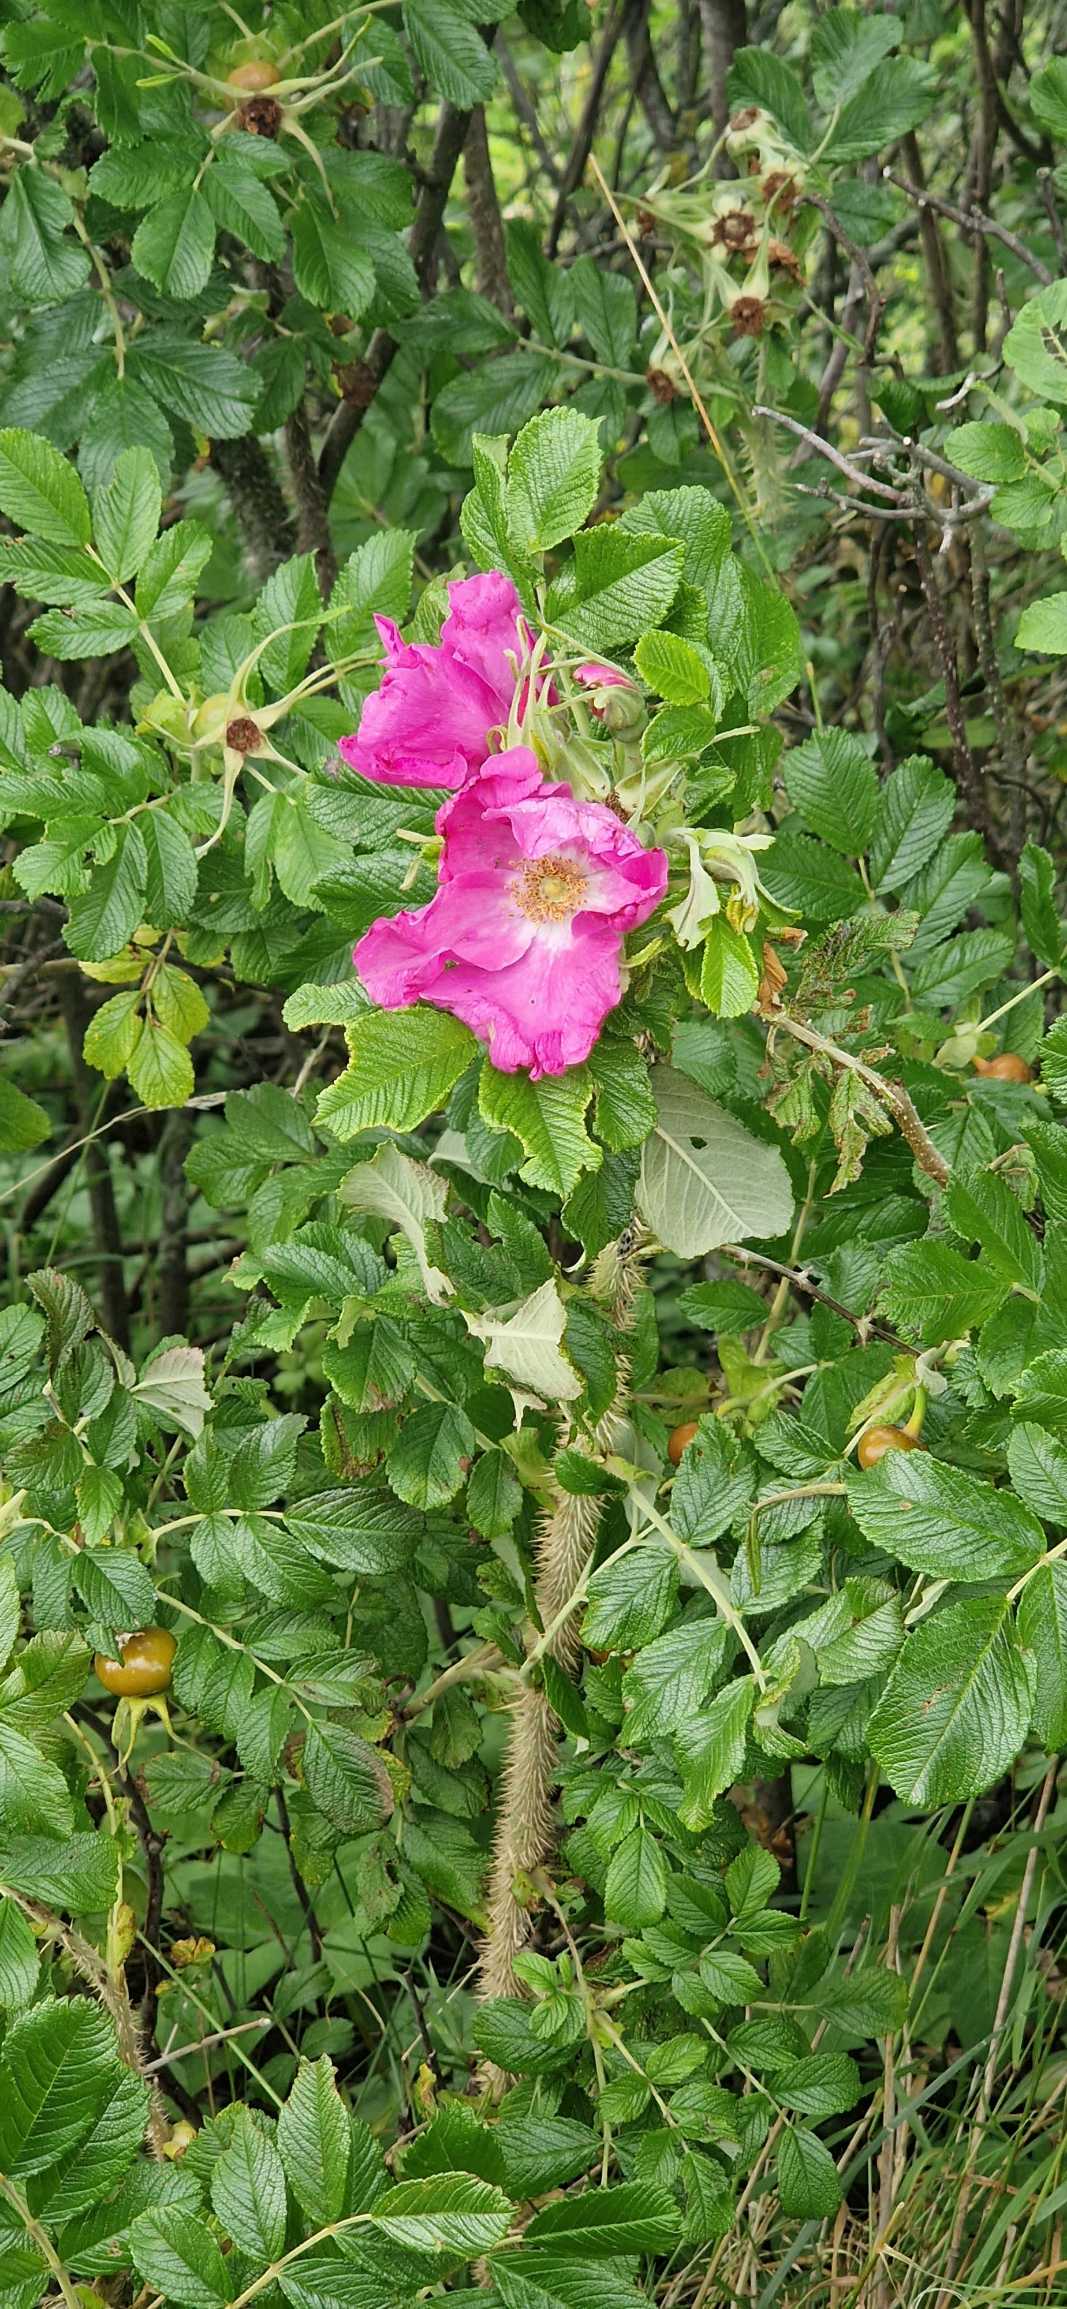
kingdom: Plantae
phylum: Tracheophyta
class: Magnoliopsida
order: Rosales
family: Rosaceae
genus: Rosa
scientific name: Rosa rugosa
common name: Rynket rose
